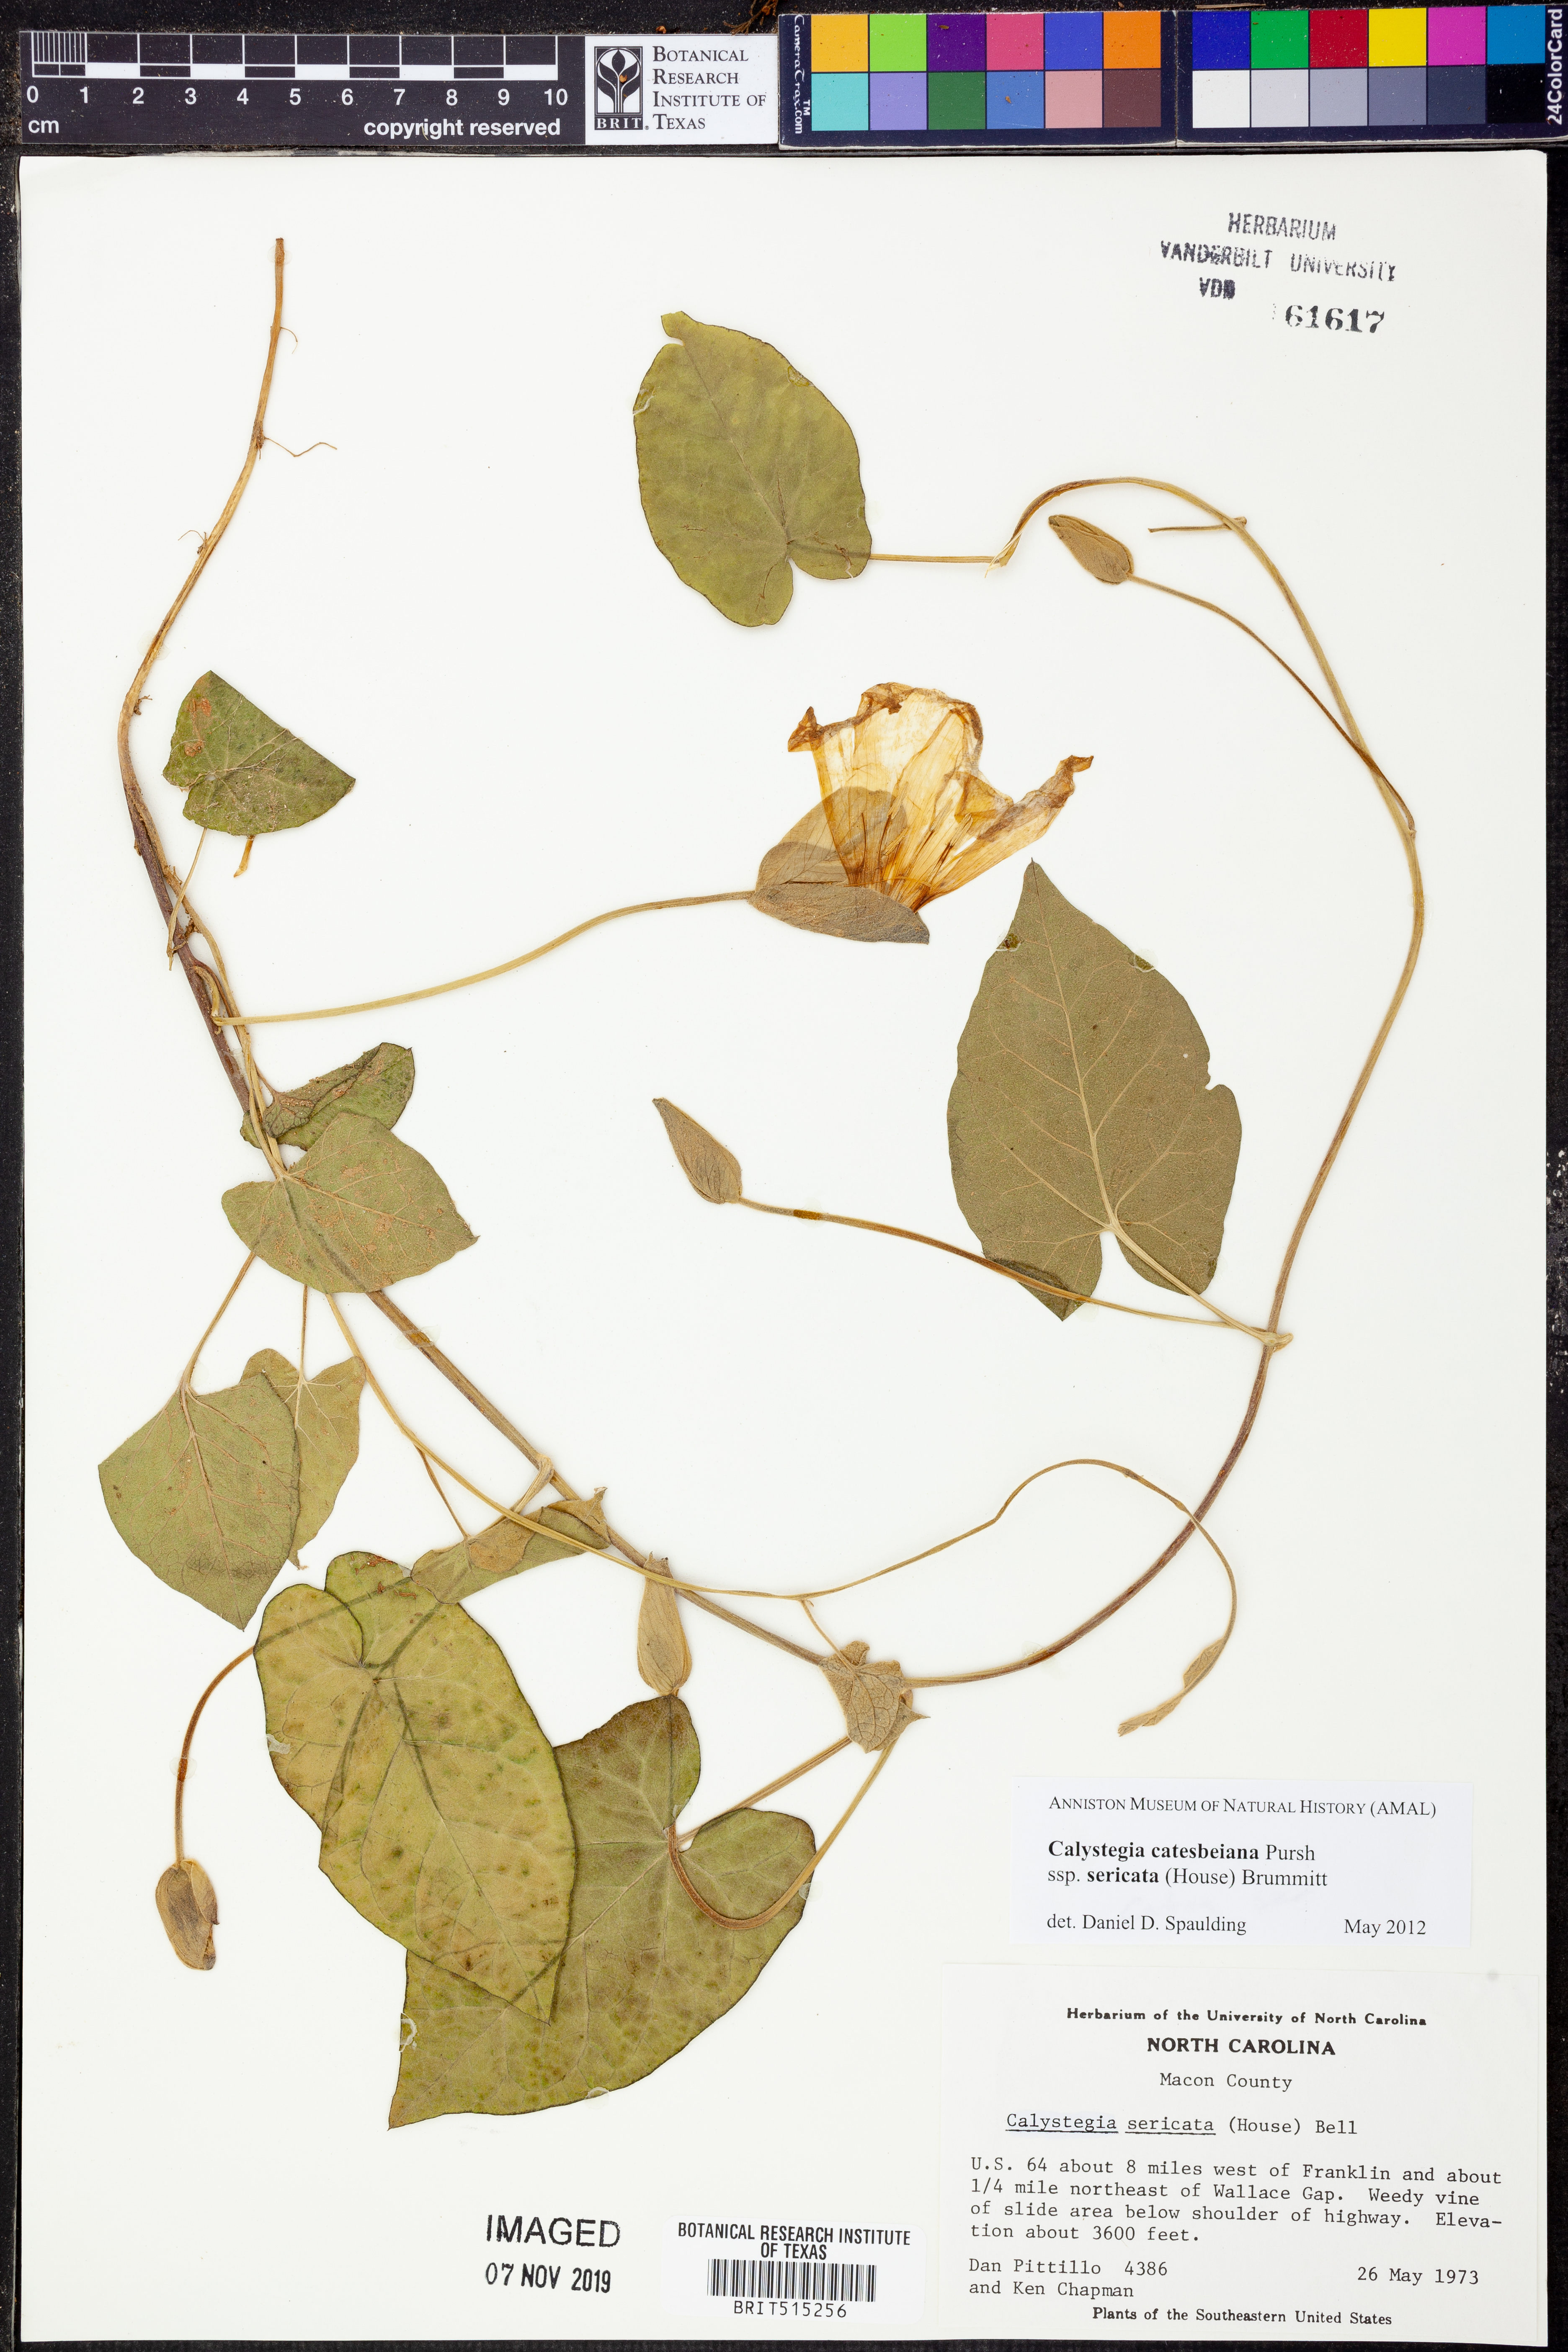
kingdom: Plantae
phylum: Tracheophyta
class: Magnoliopsida
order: Solanales
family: Convolvulaceae
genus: Calystegia
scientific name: Calystegia catesbeiana
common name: Catesby's false bindweed
